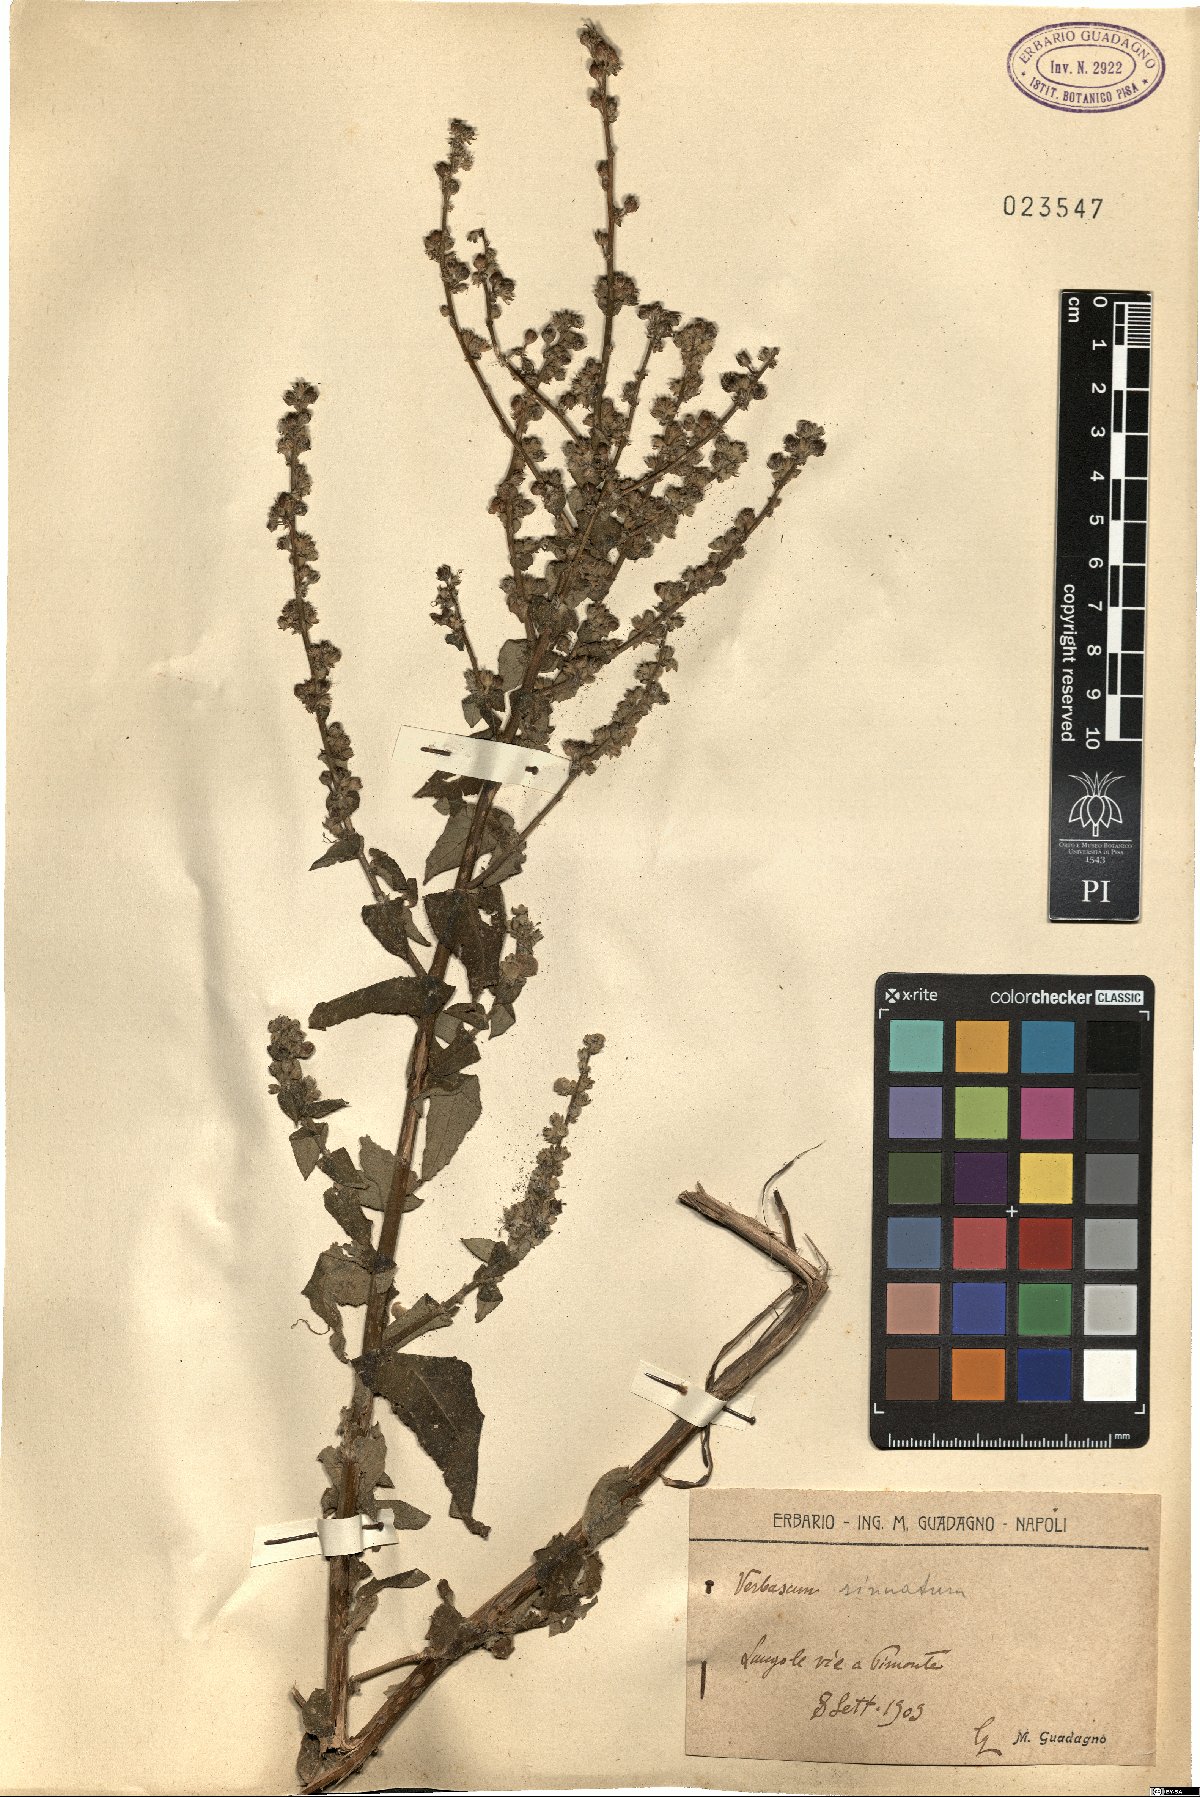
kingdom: Plantae
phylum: Tracheophyta
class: Magnoliopsida
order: Lamiales
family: Scrophulariaceae
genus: Verbascum
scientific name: Verbascum sinuatum
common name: Wavyleaf mullein
